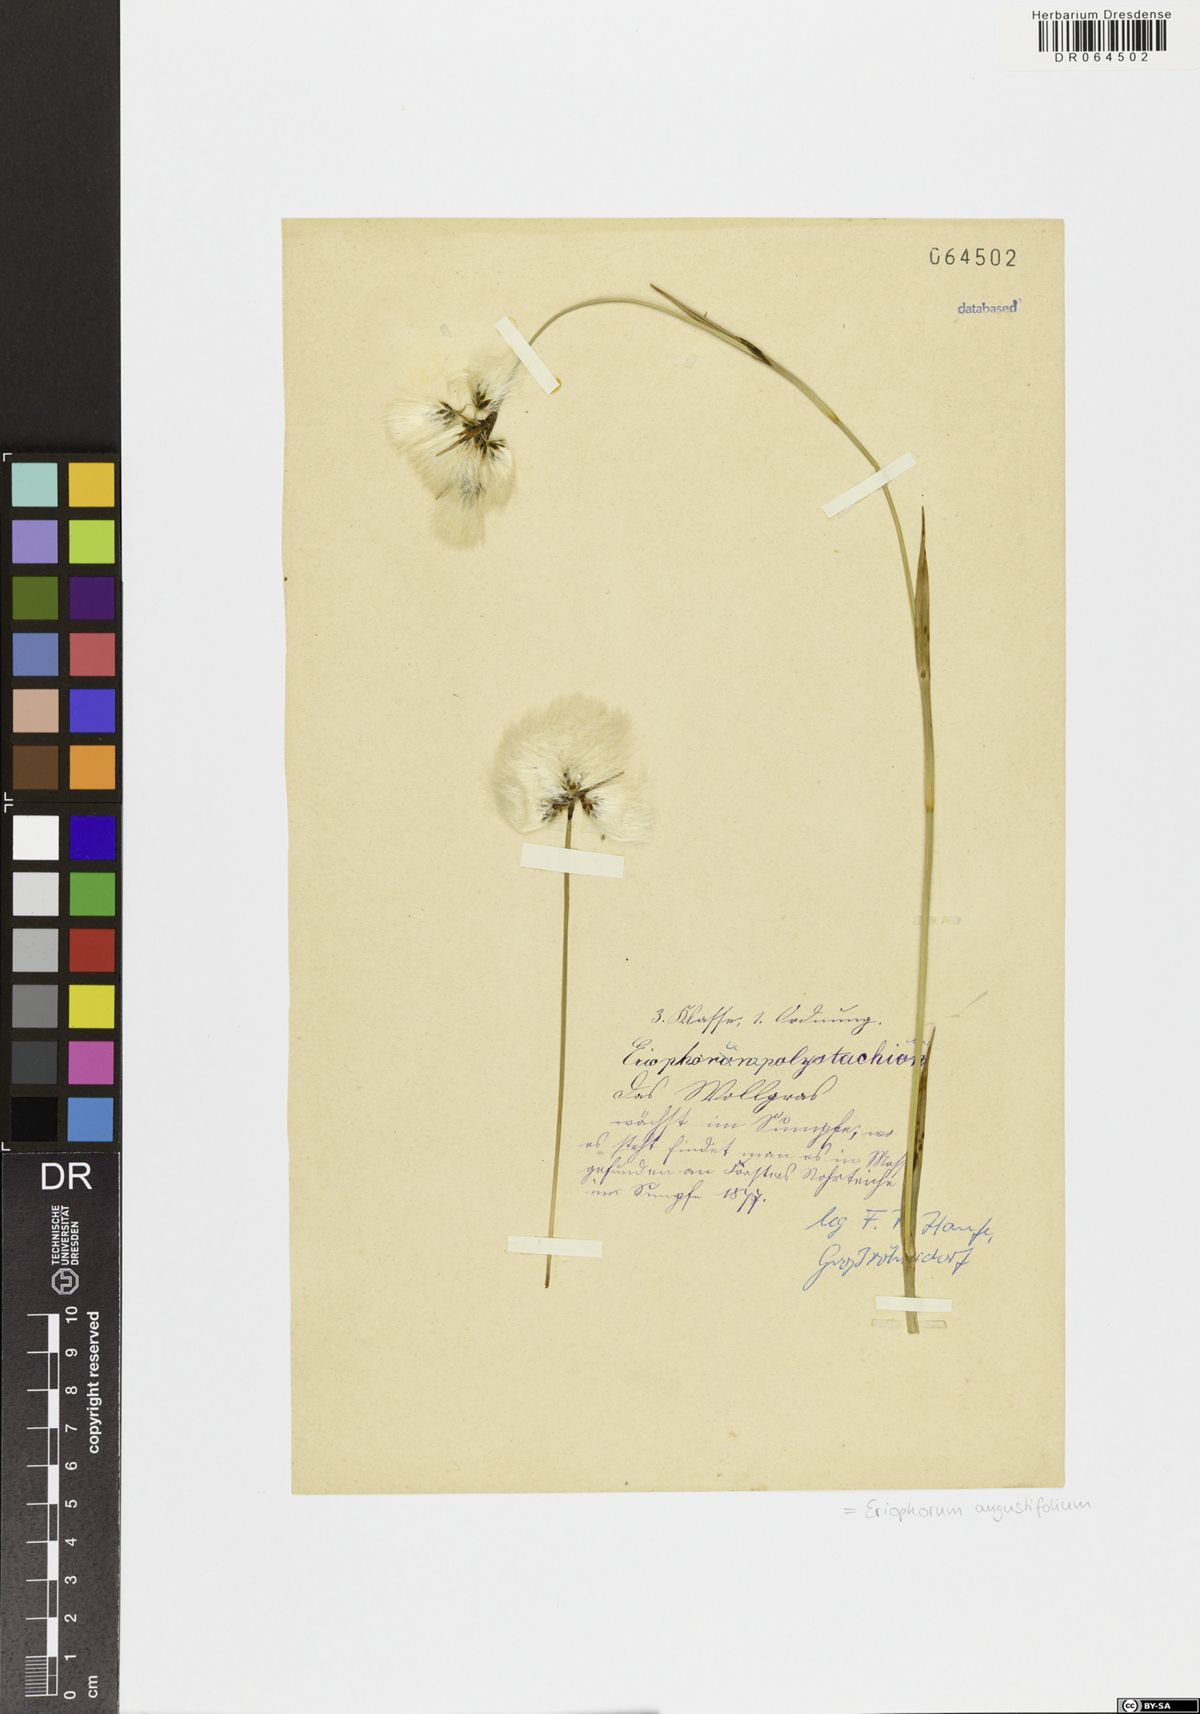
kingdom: Plantae
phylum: Tracheophyta
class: Liliopsida
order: Poales
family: Cyperaceae
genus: Eriophorum
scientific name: Eriophorum angustifolium
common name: Common cottongrass
